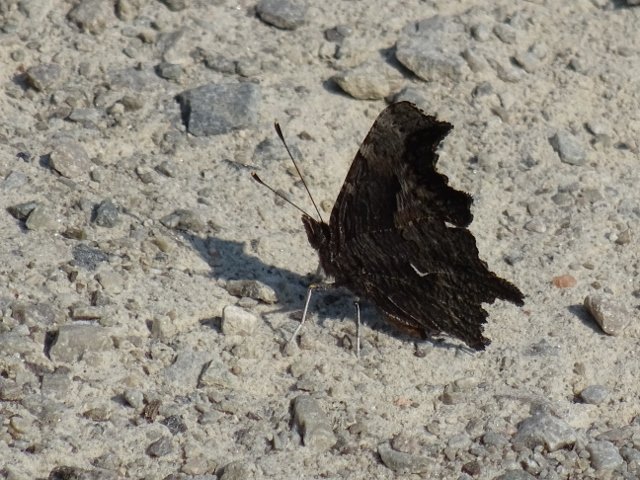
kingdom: Animalia
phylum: Arthropoda
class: Insecta
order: Lepidoptera
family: Nymphalidae
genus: Polygonia
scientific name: Polygonia progne
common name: Gray Comma
